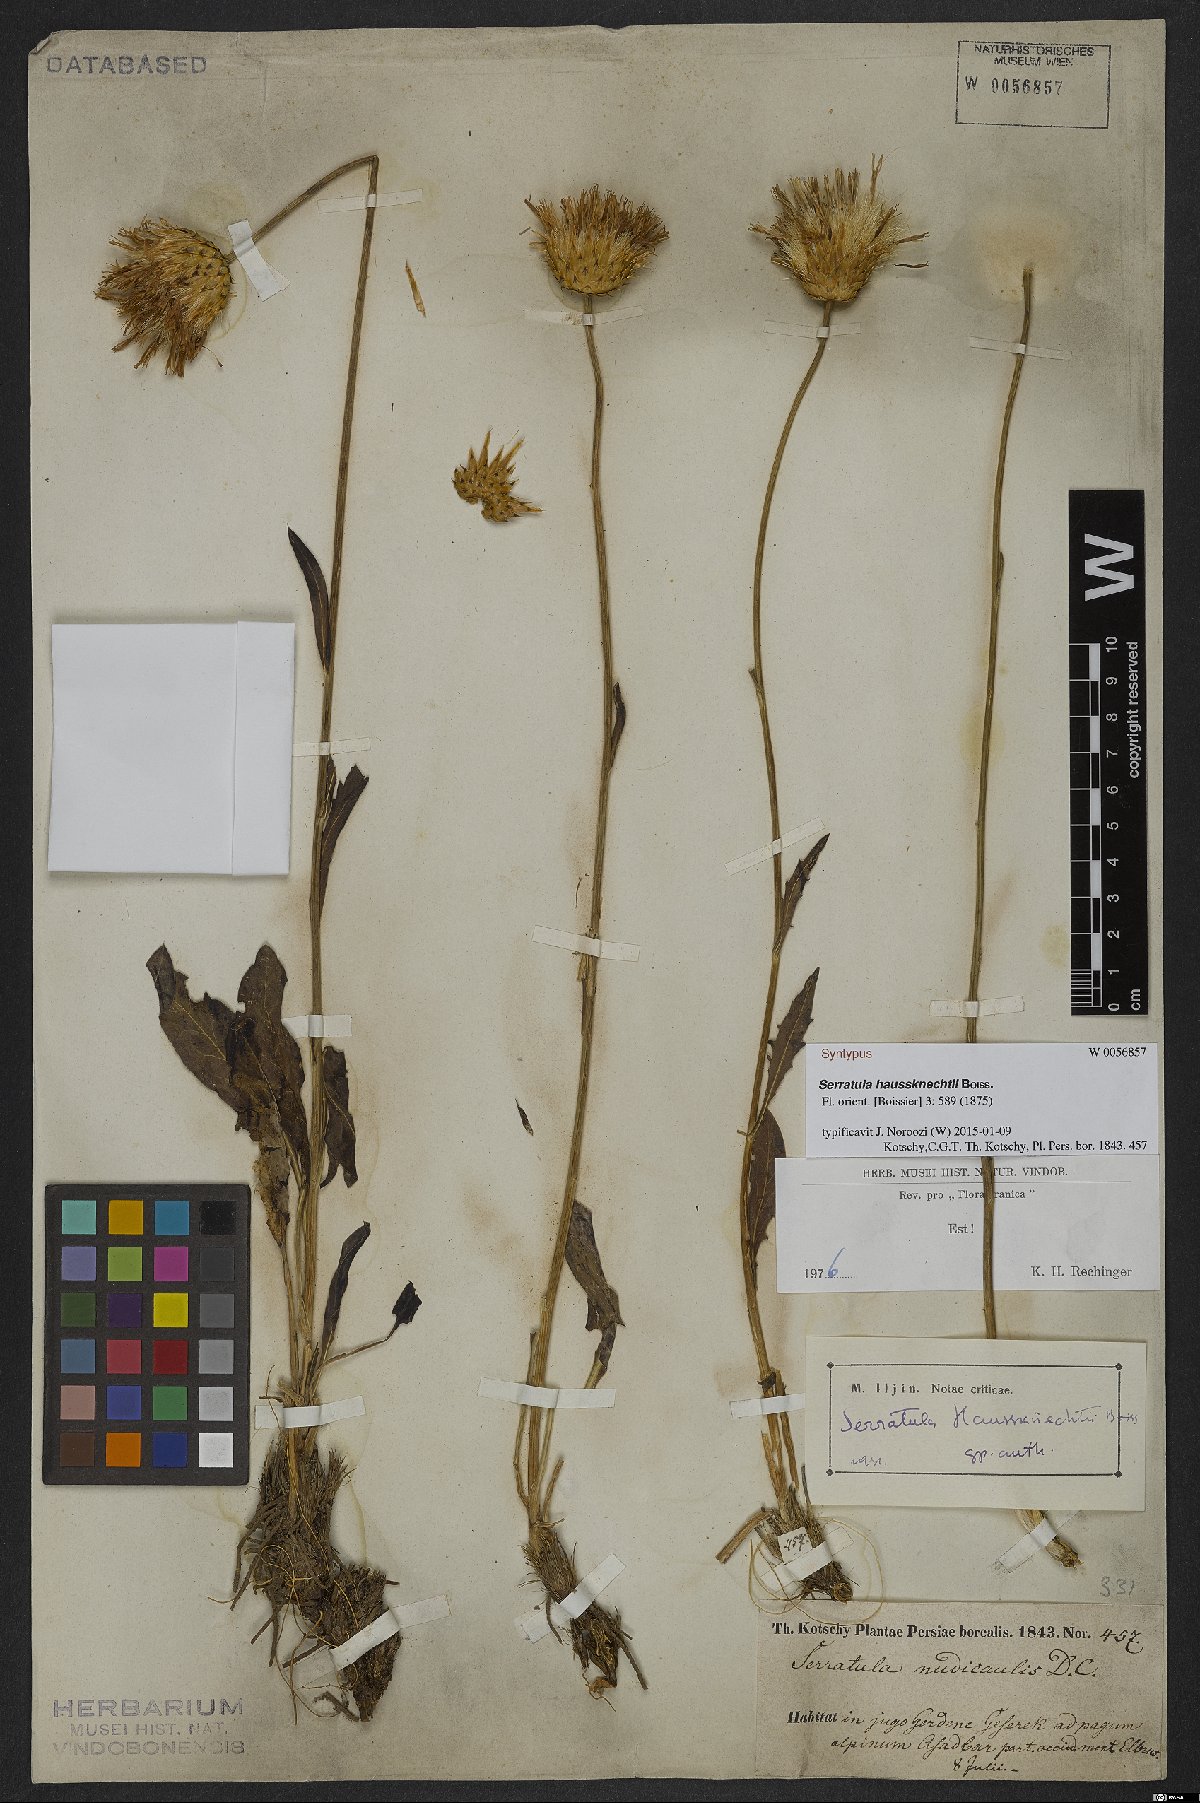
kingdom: Plantae
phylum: Tracheophyta
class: Magnoliopsida
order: Asterales
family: Asteraceae
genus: Klasea
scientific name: Klasea haussknechtii
